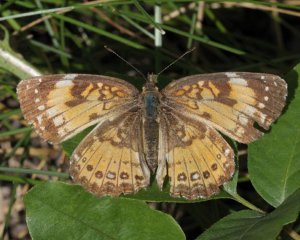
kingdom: Animalia
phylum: Arthropoda
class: Insecta
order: Lepidoptera
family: Nymphalidae
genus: Chlosyne
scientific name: Chlosyne nycteis
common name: Silvery Checkerspot
